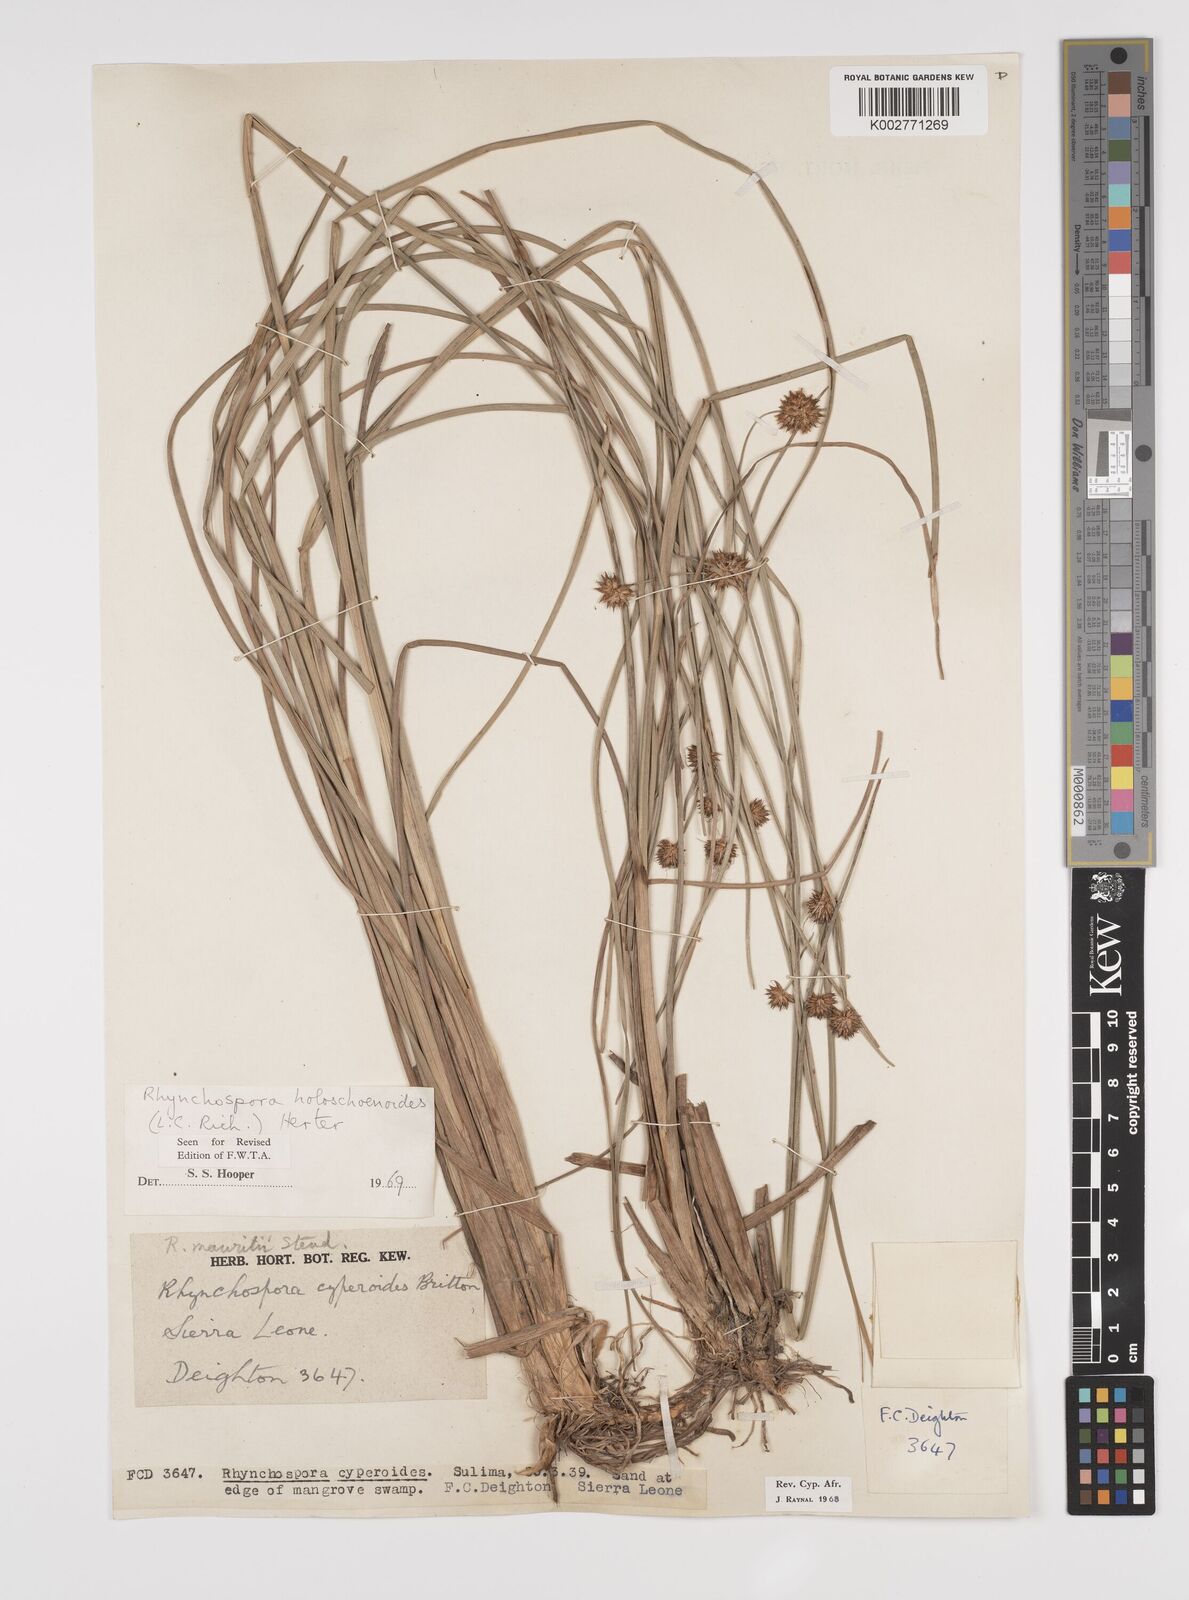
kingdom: Plantae
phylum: Tracheophyta
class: Liliopsida
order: Poales
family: Cyperaceae
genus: Rhynchospora
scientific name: Rhynchospora holoschoenoides
